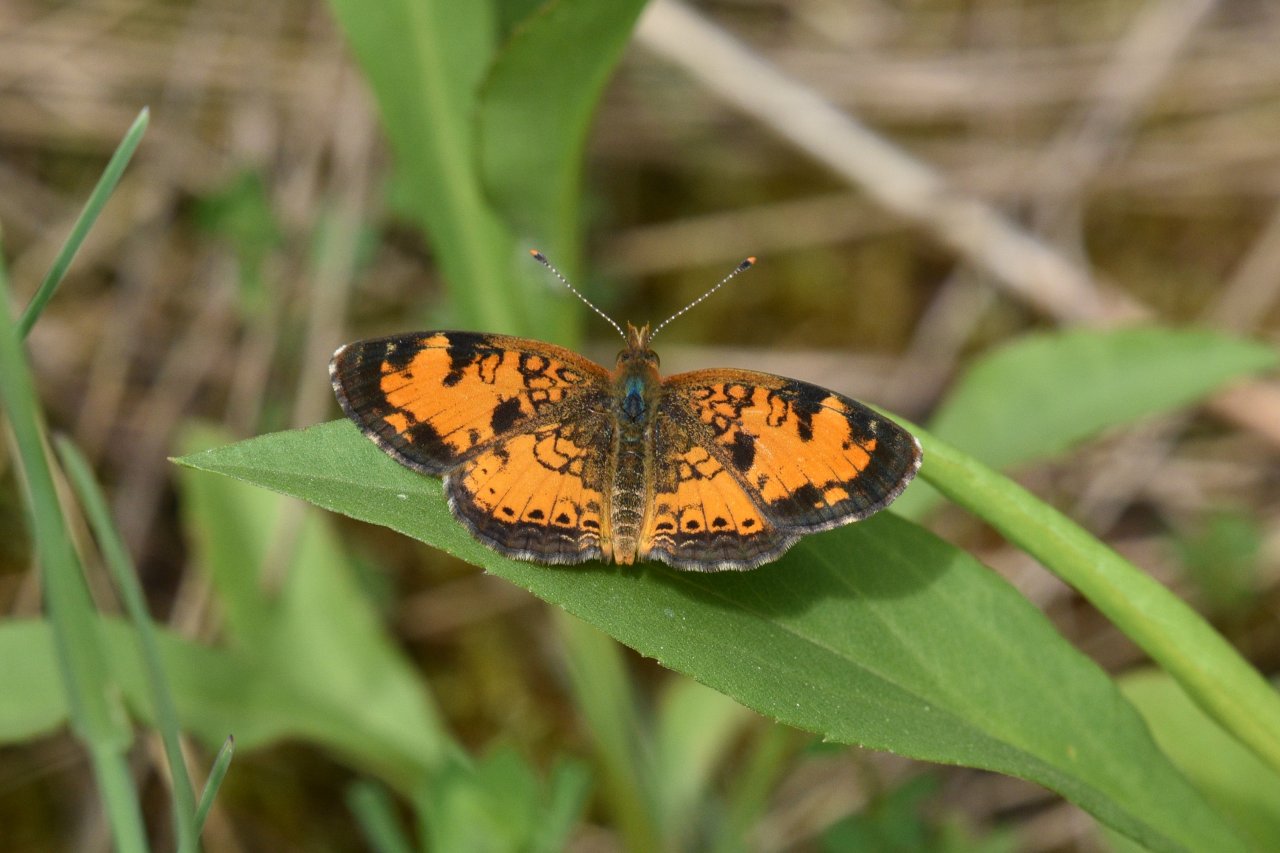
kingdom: Animalia
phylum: Arthropoda
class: Insecta
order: Lepidoptera
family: Nymphalidae
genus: Phyciodes
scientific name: Phyciodes tharos
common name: Northern Crescent
